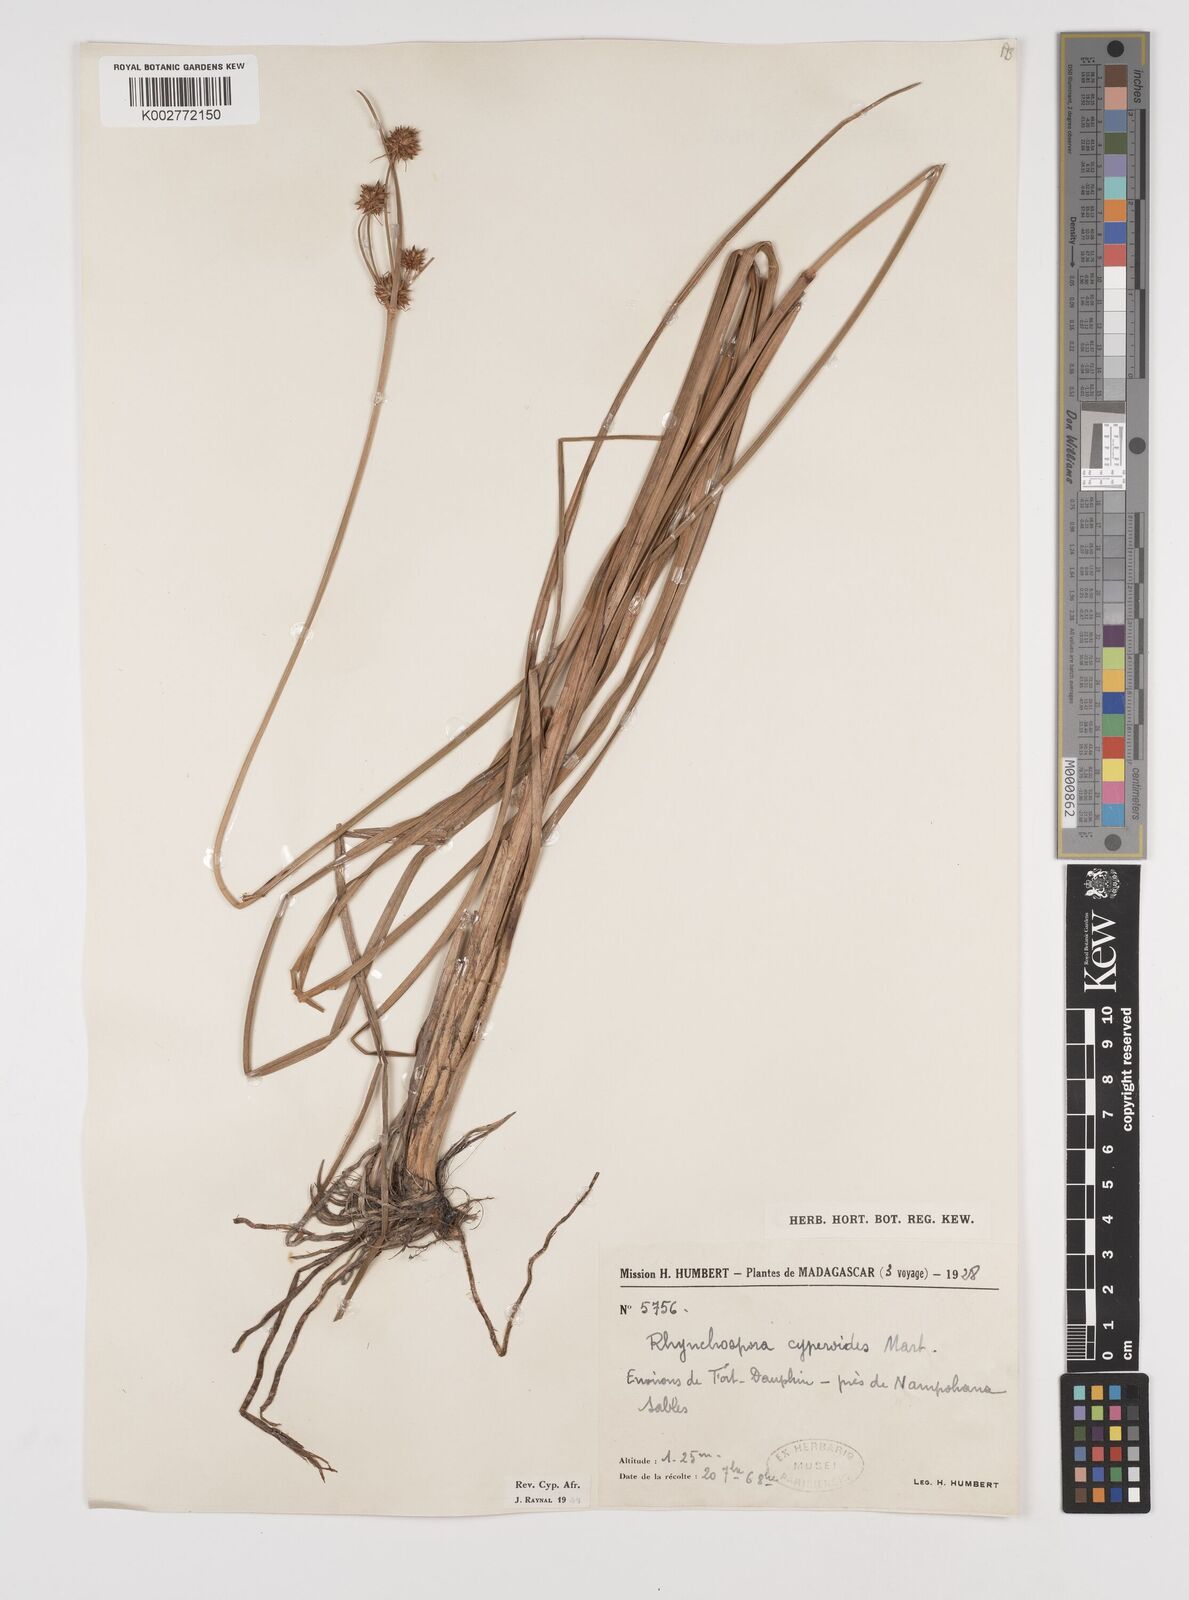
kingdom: Plantae
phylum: Tracheophyta
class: Liliopsida
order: Poales
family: Cyperaceae
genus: Rhynchospora
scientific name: Rhynchospora holoschoenoides
